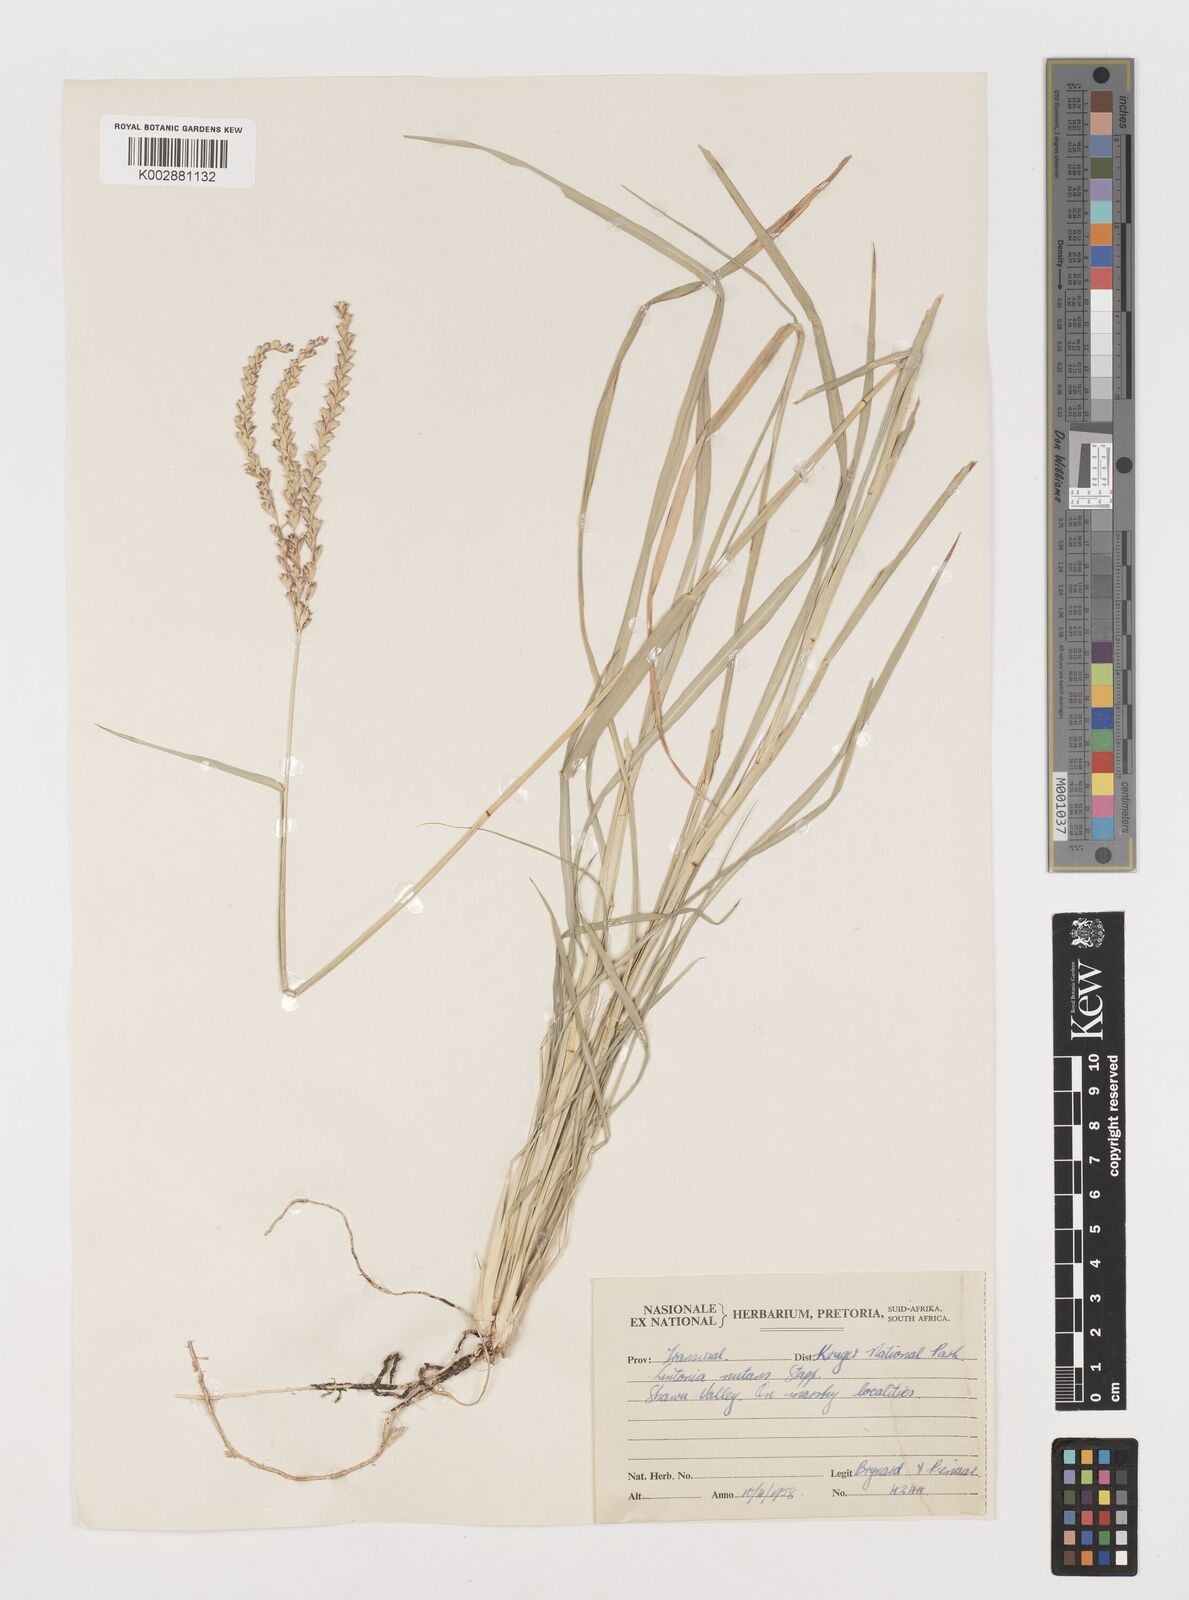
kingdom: Plantae
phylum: Tracheophyta
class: Liliopsida
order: Poales
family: Poaceae
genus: Chloris
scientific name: Chloris nutans
